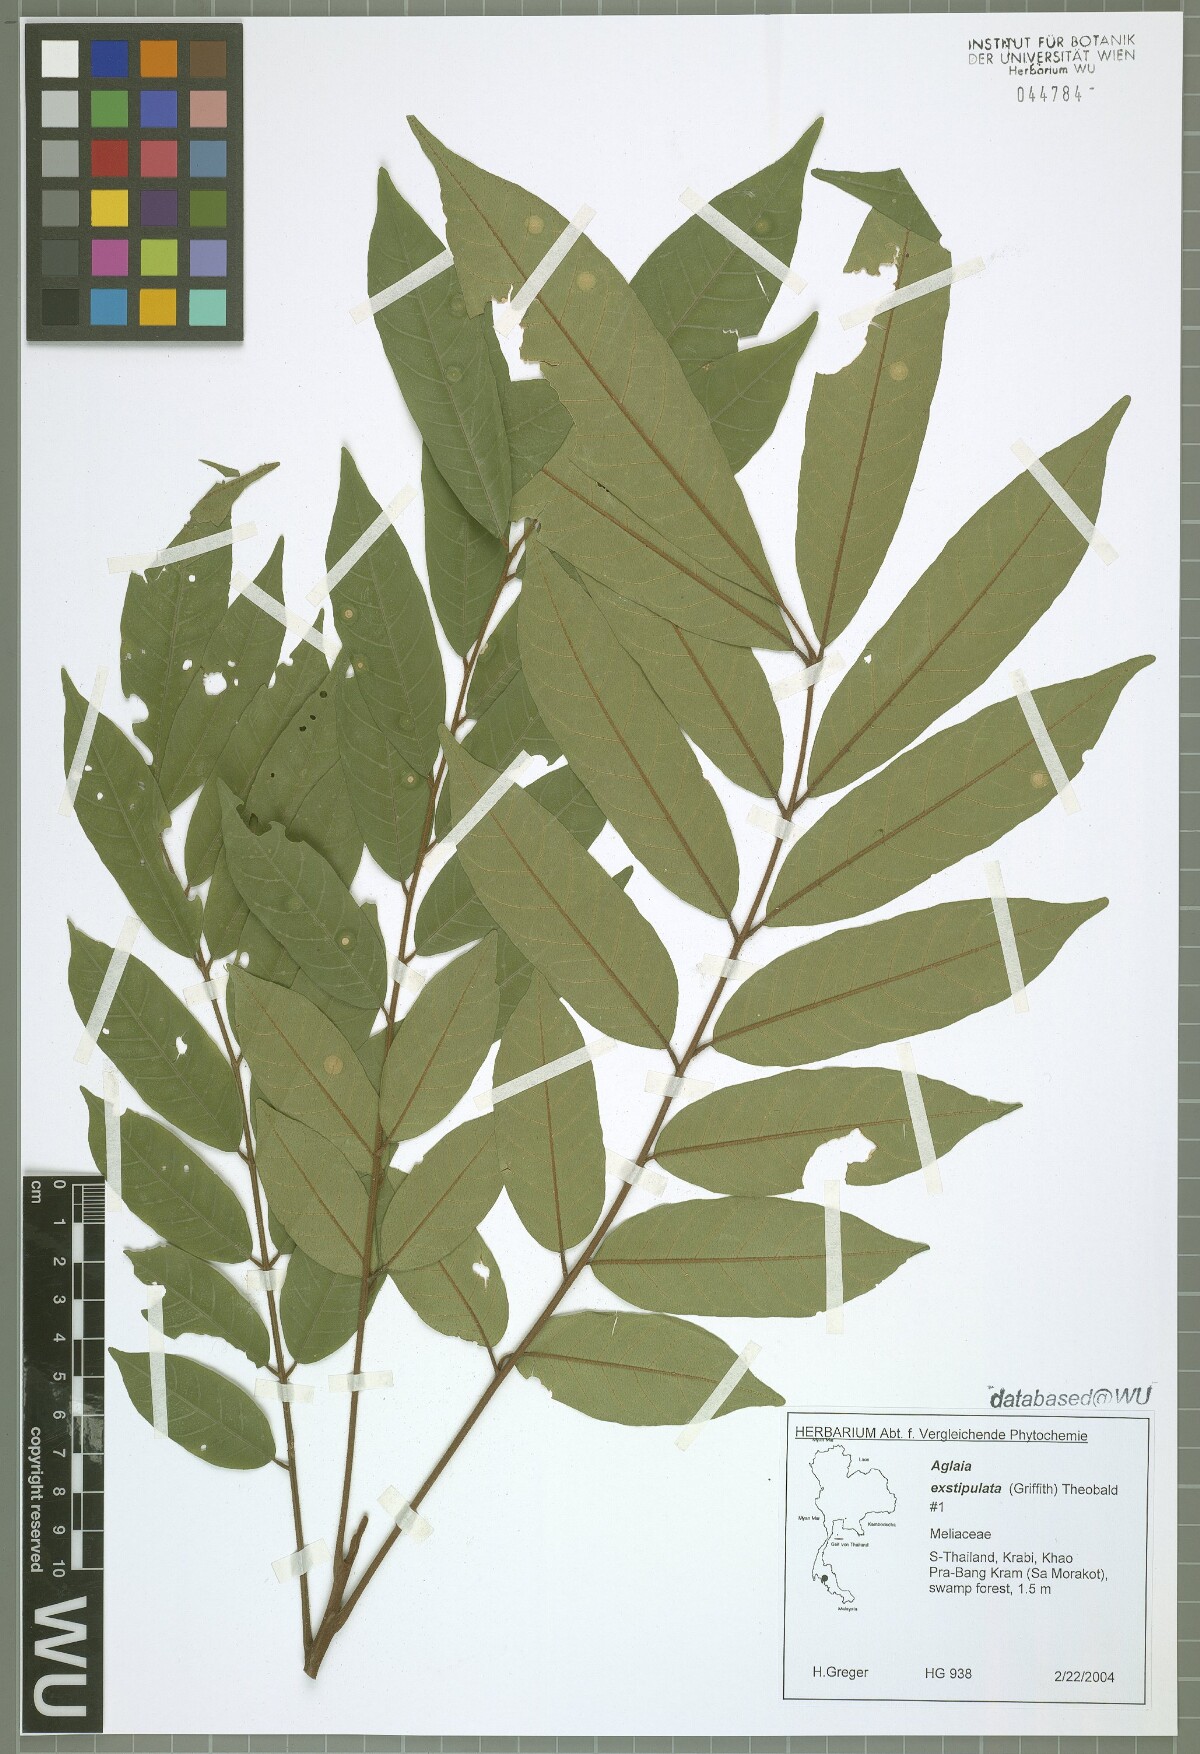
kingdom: Plantae
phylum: Tracheophyta
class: Magnoliopsida
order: Sapindales
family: Meliaceae
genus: Aglaia
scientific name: Aglaia exstipulata
